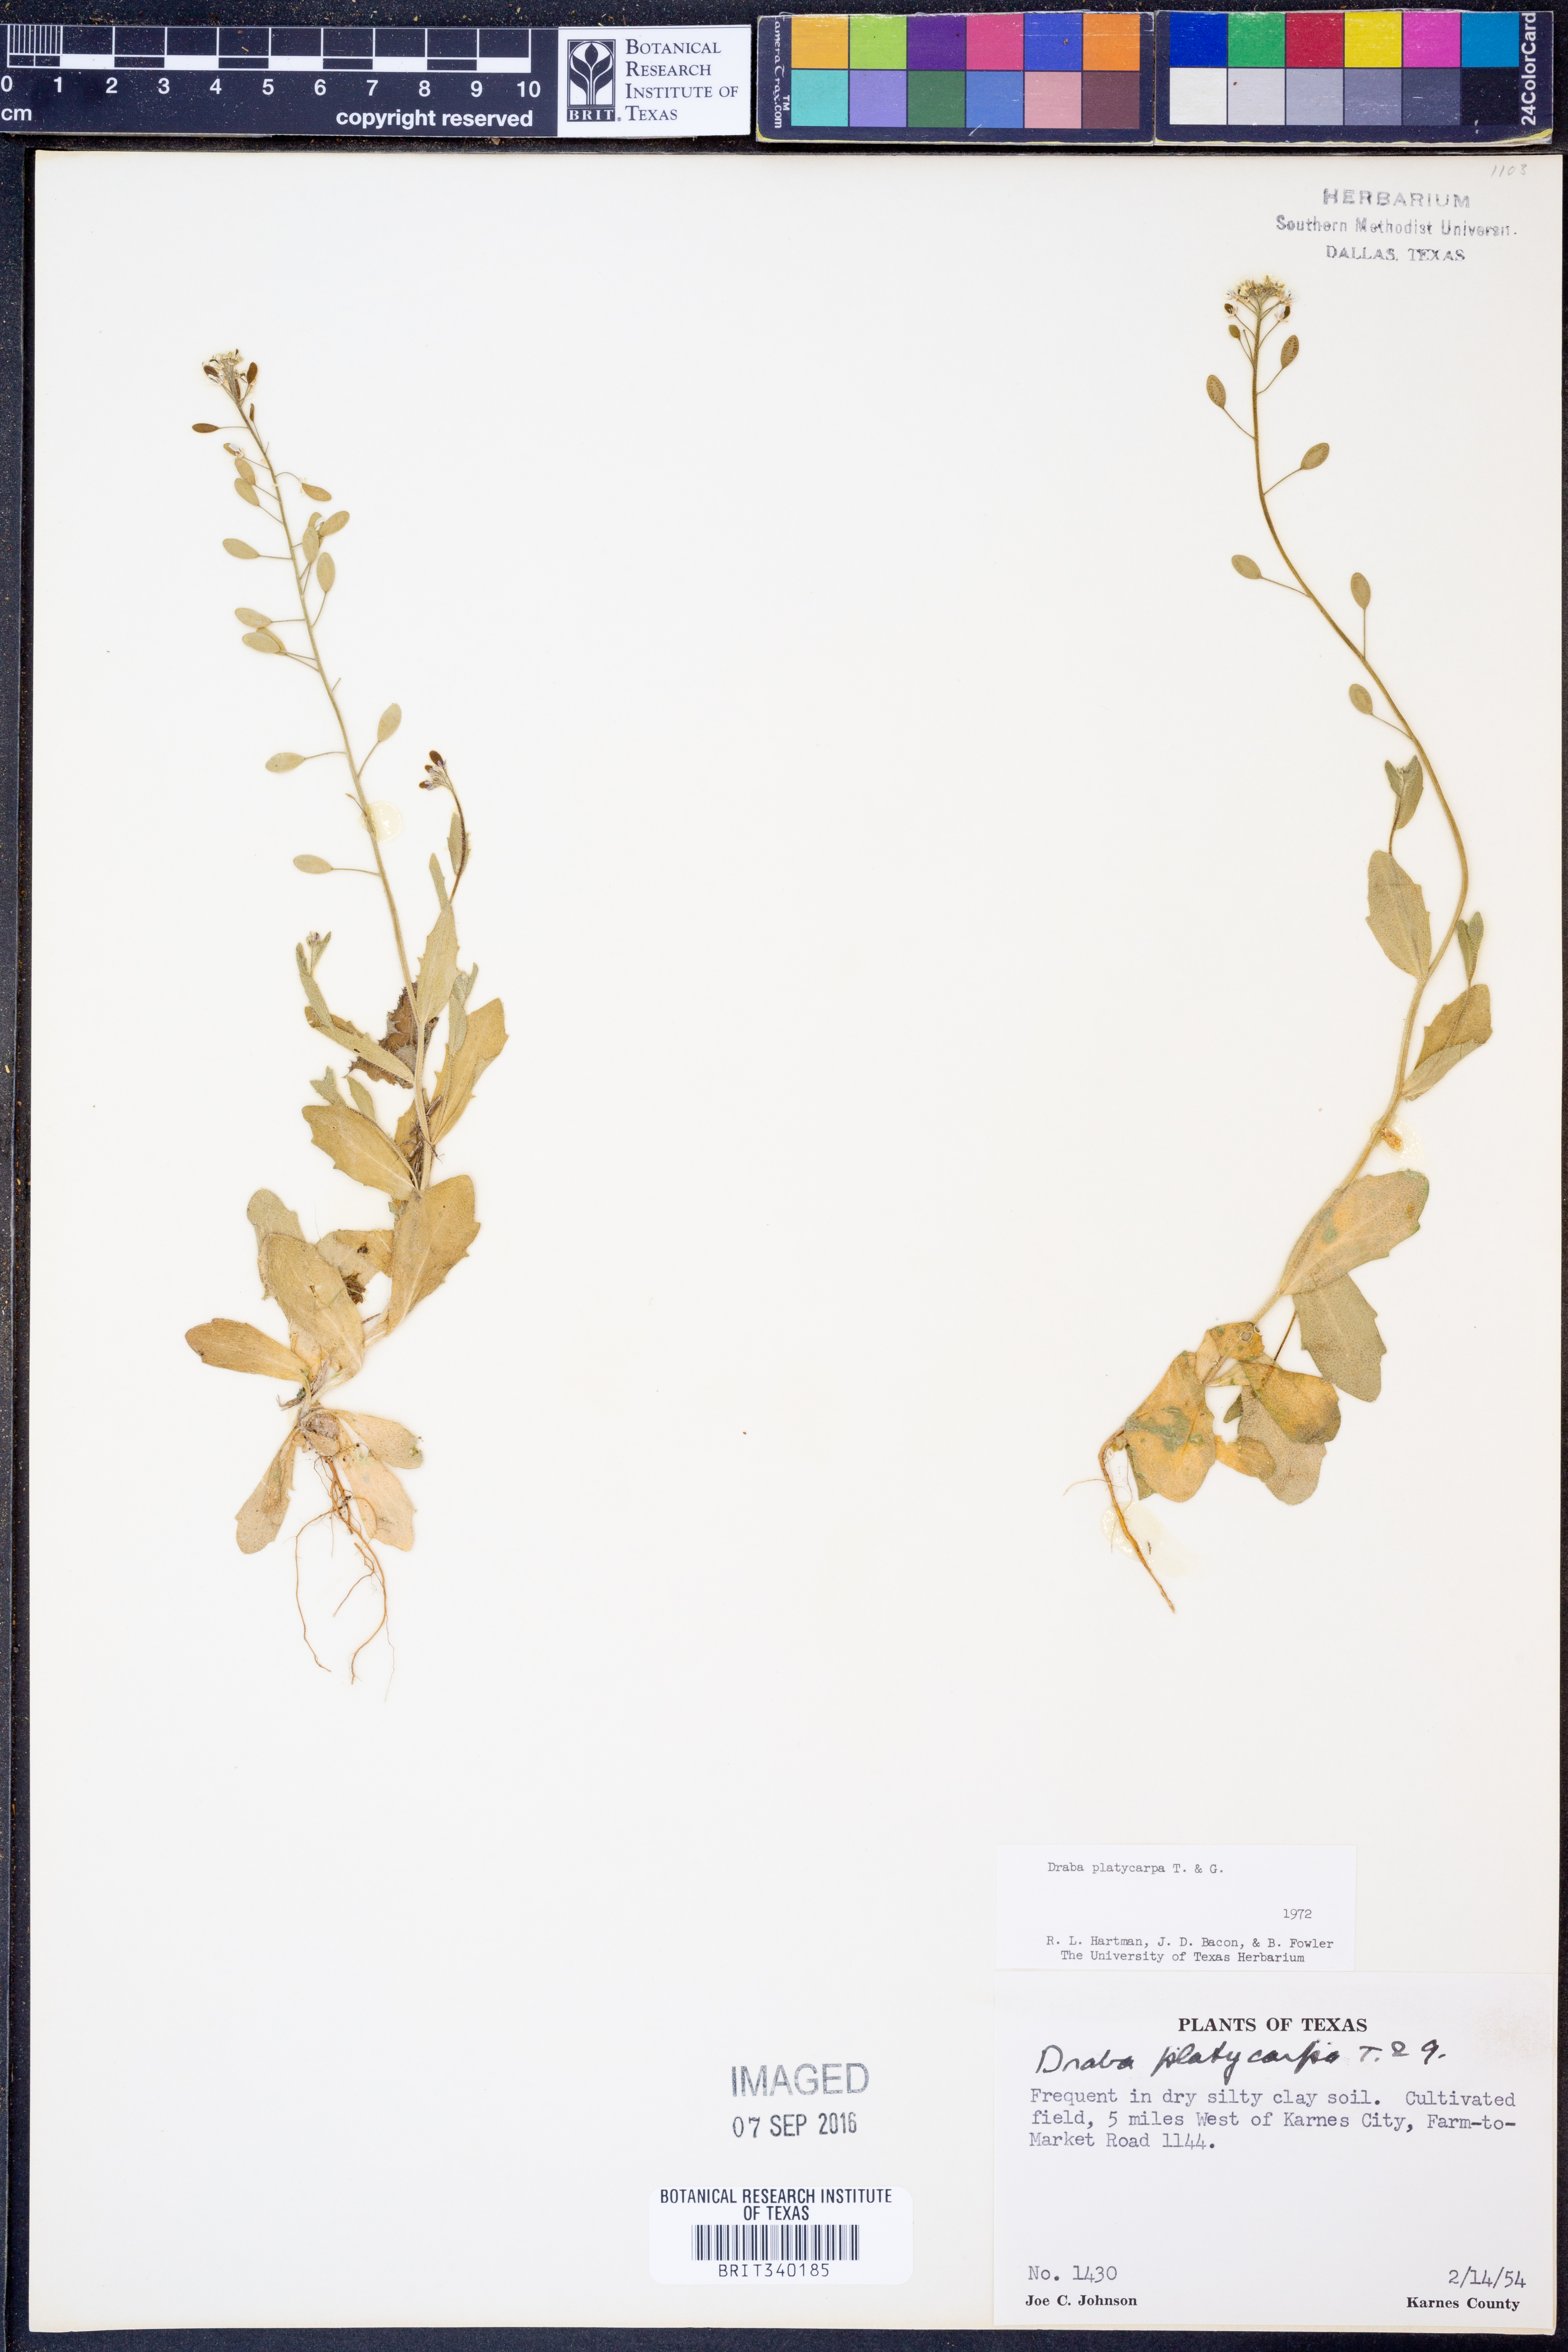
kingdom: Plantae
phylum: Tracheophyta
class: Magnoliopsida
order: Brassicales
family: Brassicaceae
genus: Tomostima
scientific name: Tomostima platycarpa
